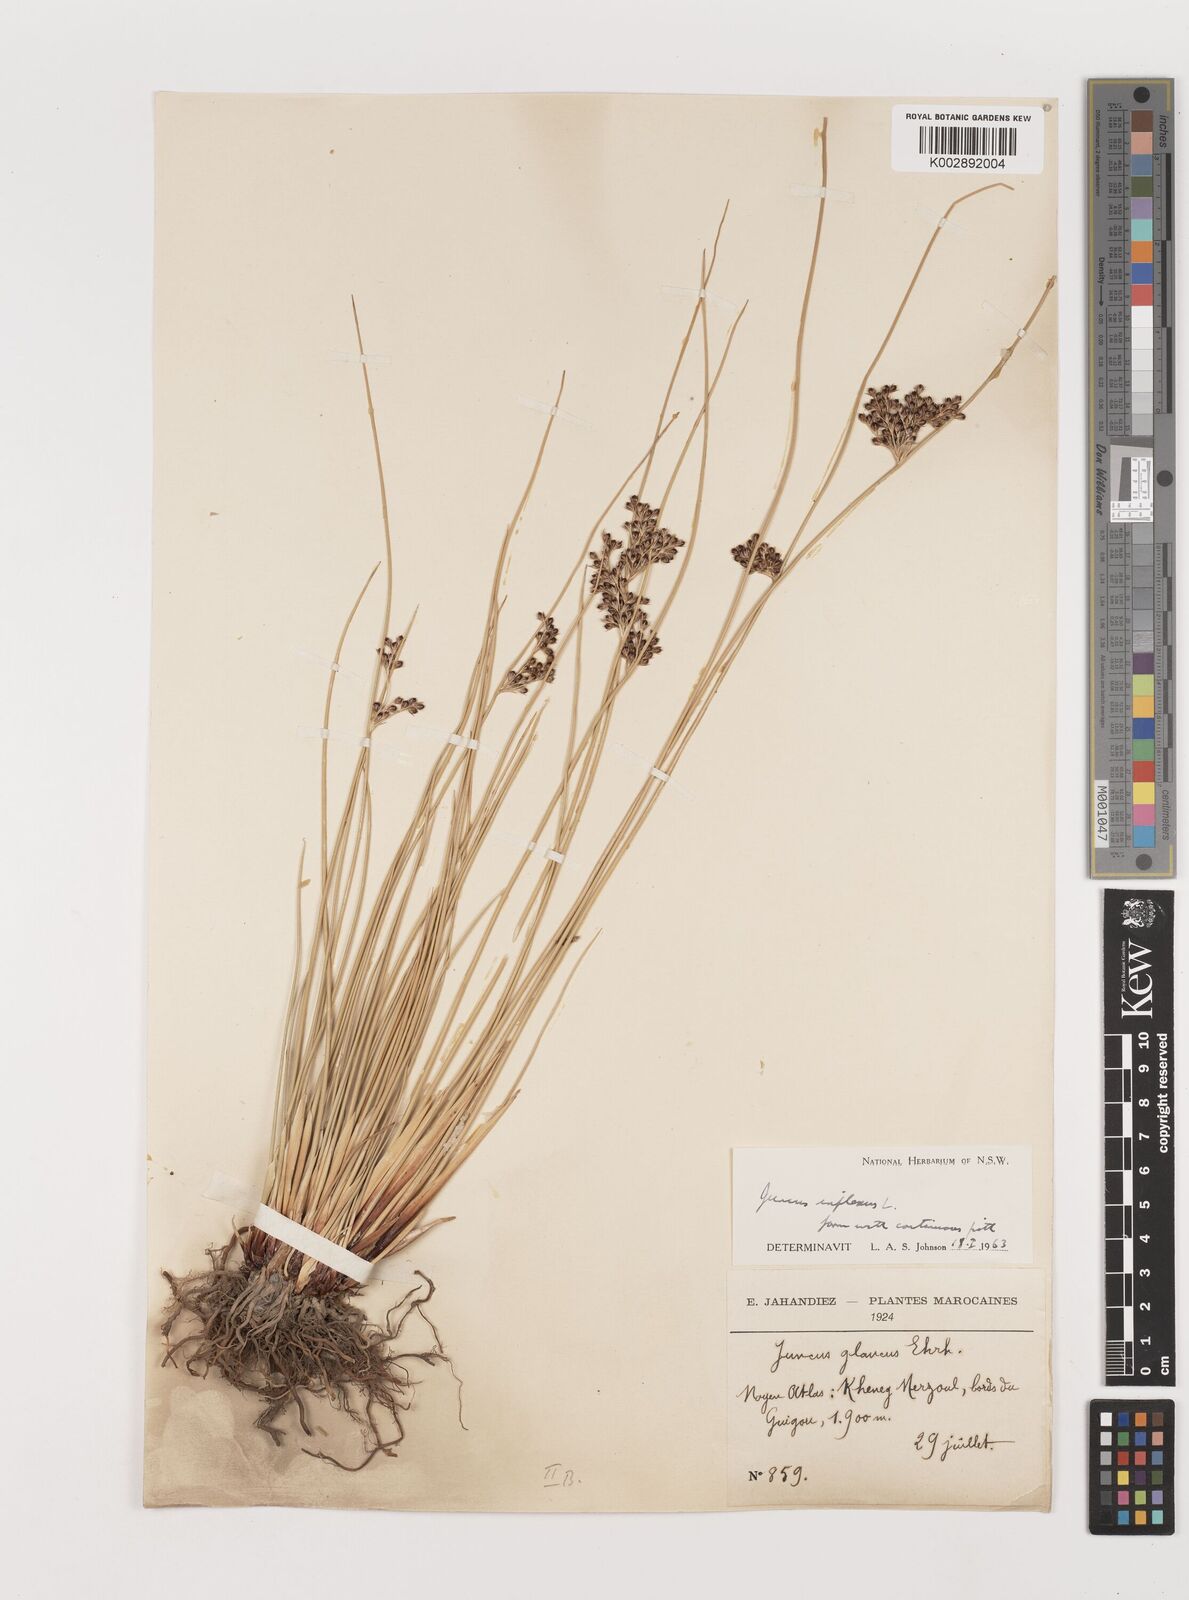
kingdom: Plantae
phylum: Tracheophyta
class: Liliopsida
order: Poales
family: Juncaceae
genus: Juncus
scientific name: Juncus inflexus
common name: Hard rush
